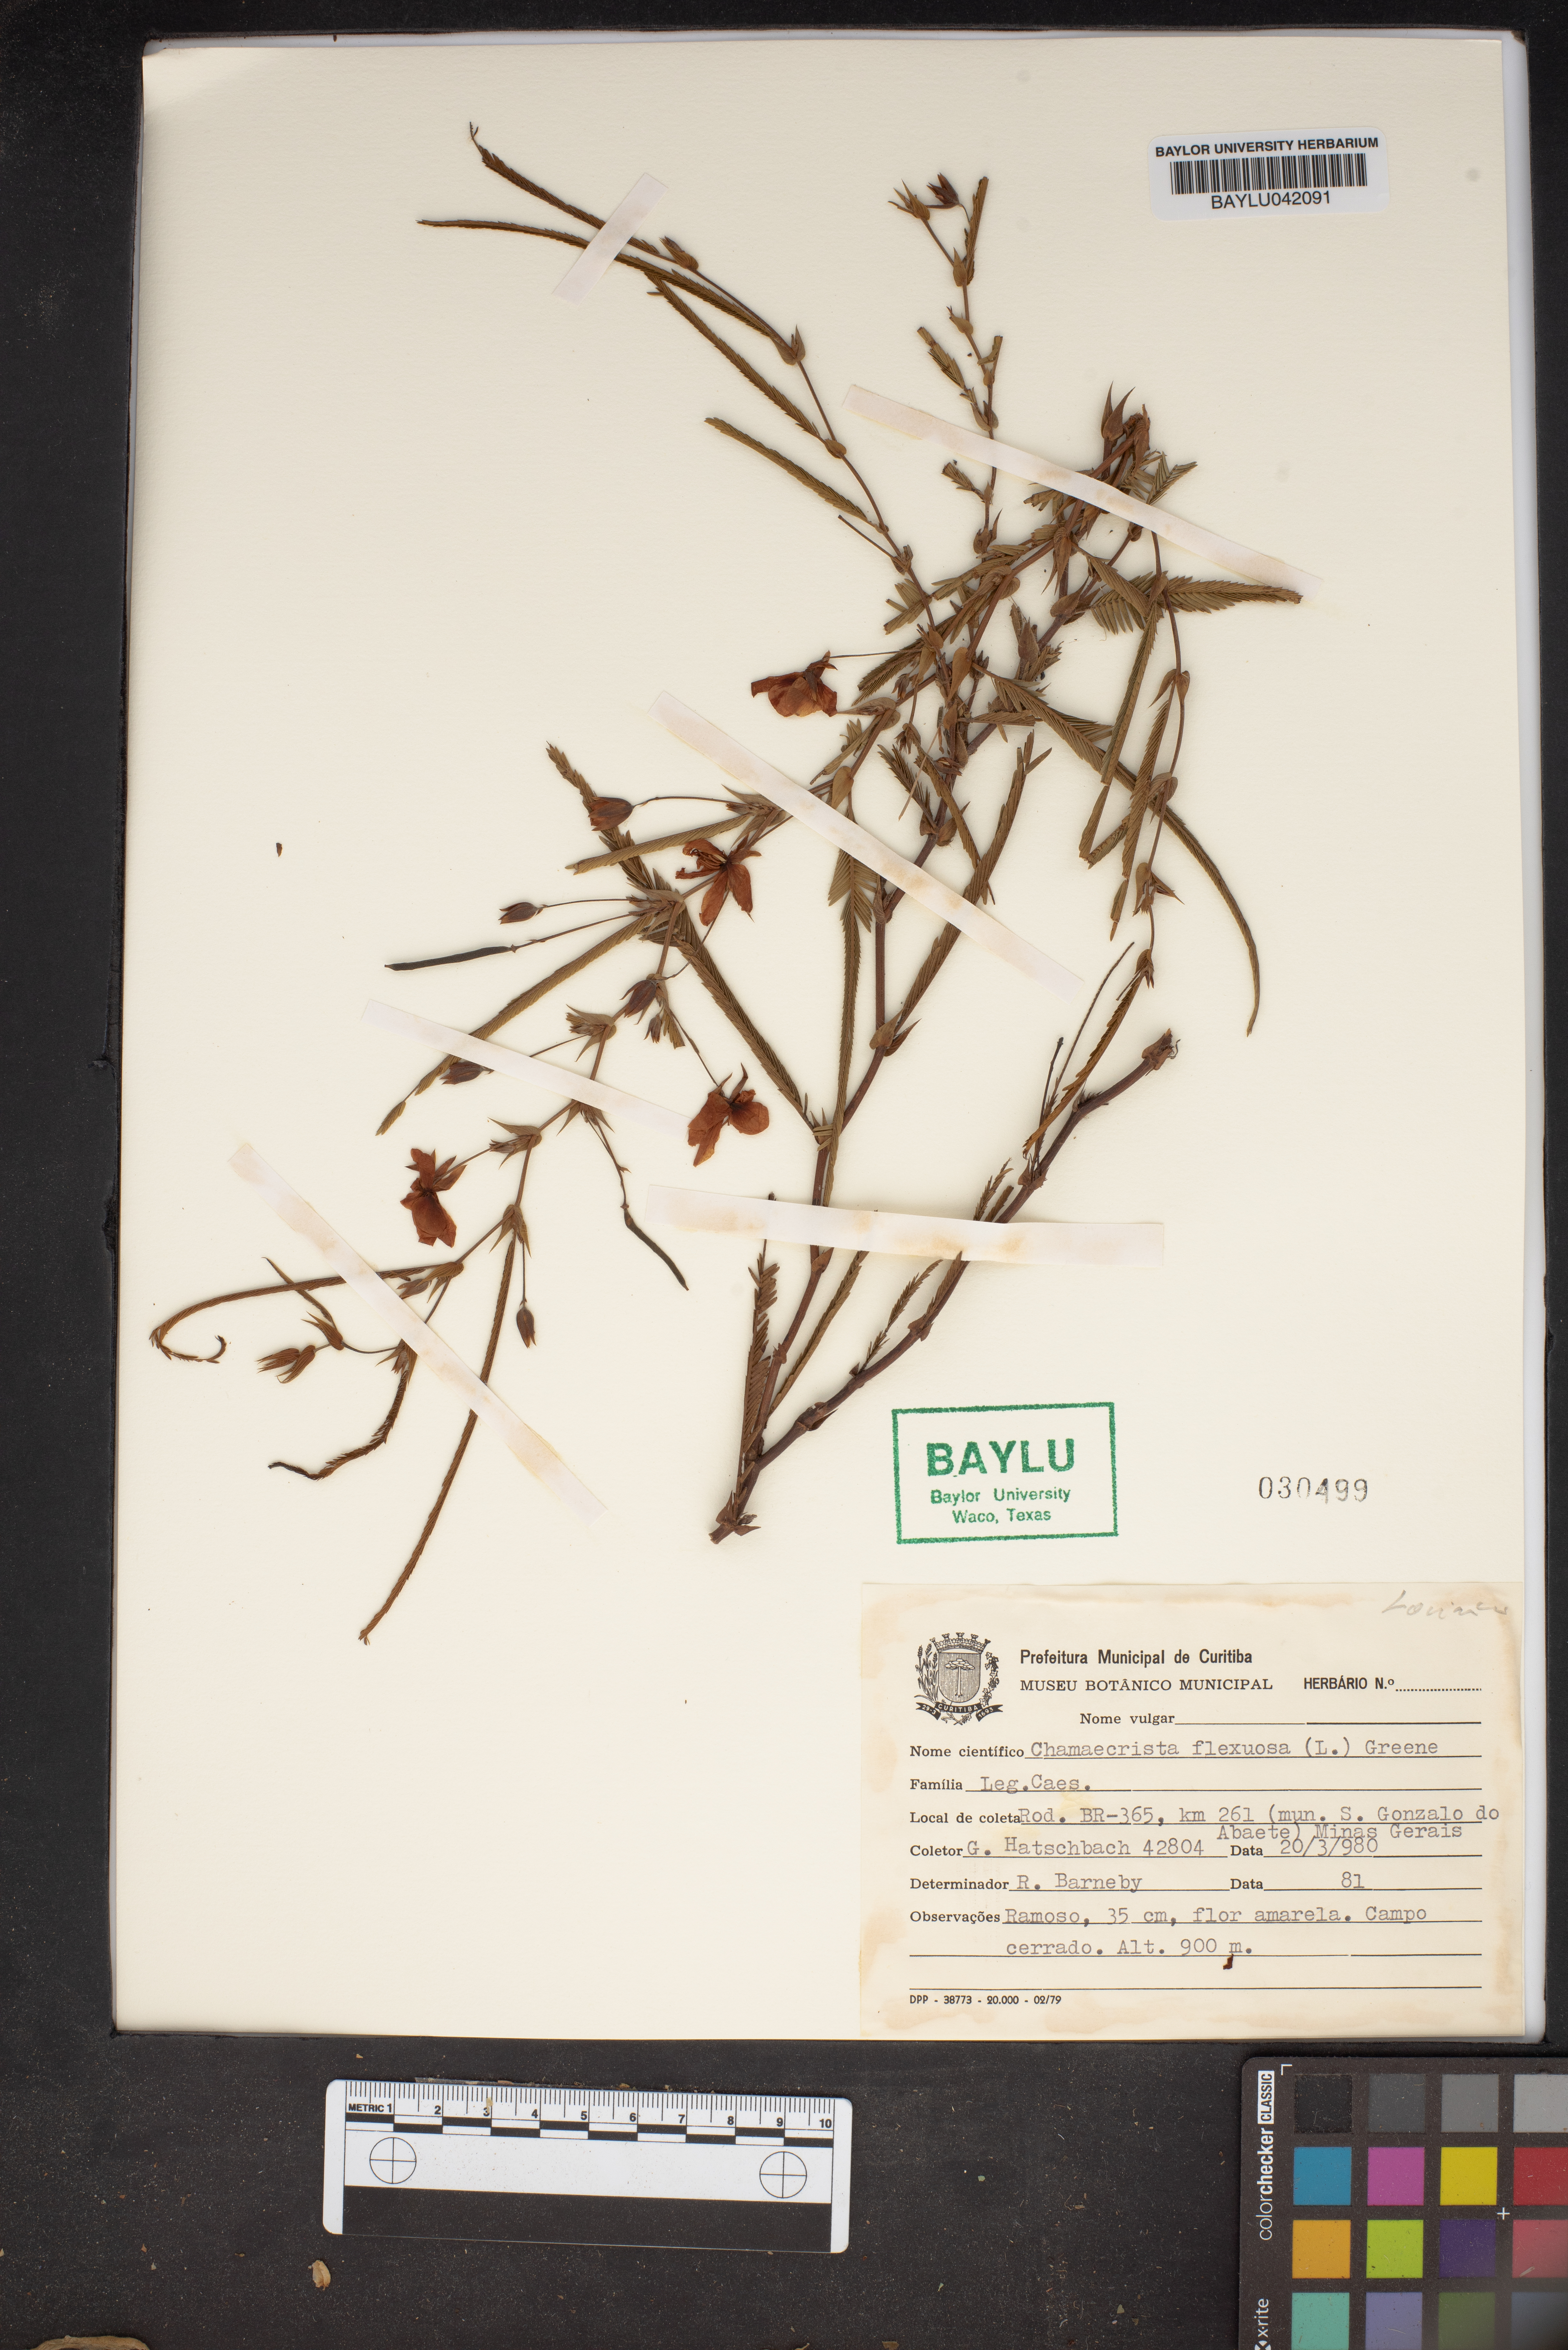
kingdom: Plantae
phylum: Tracheophyta
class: Magnoliopsida
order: Fabales
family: Fabaceae
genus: Chamaecrista
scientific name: Chamaecrista flexuosa
